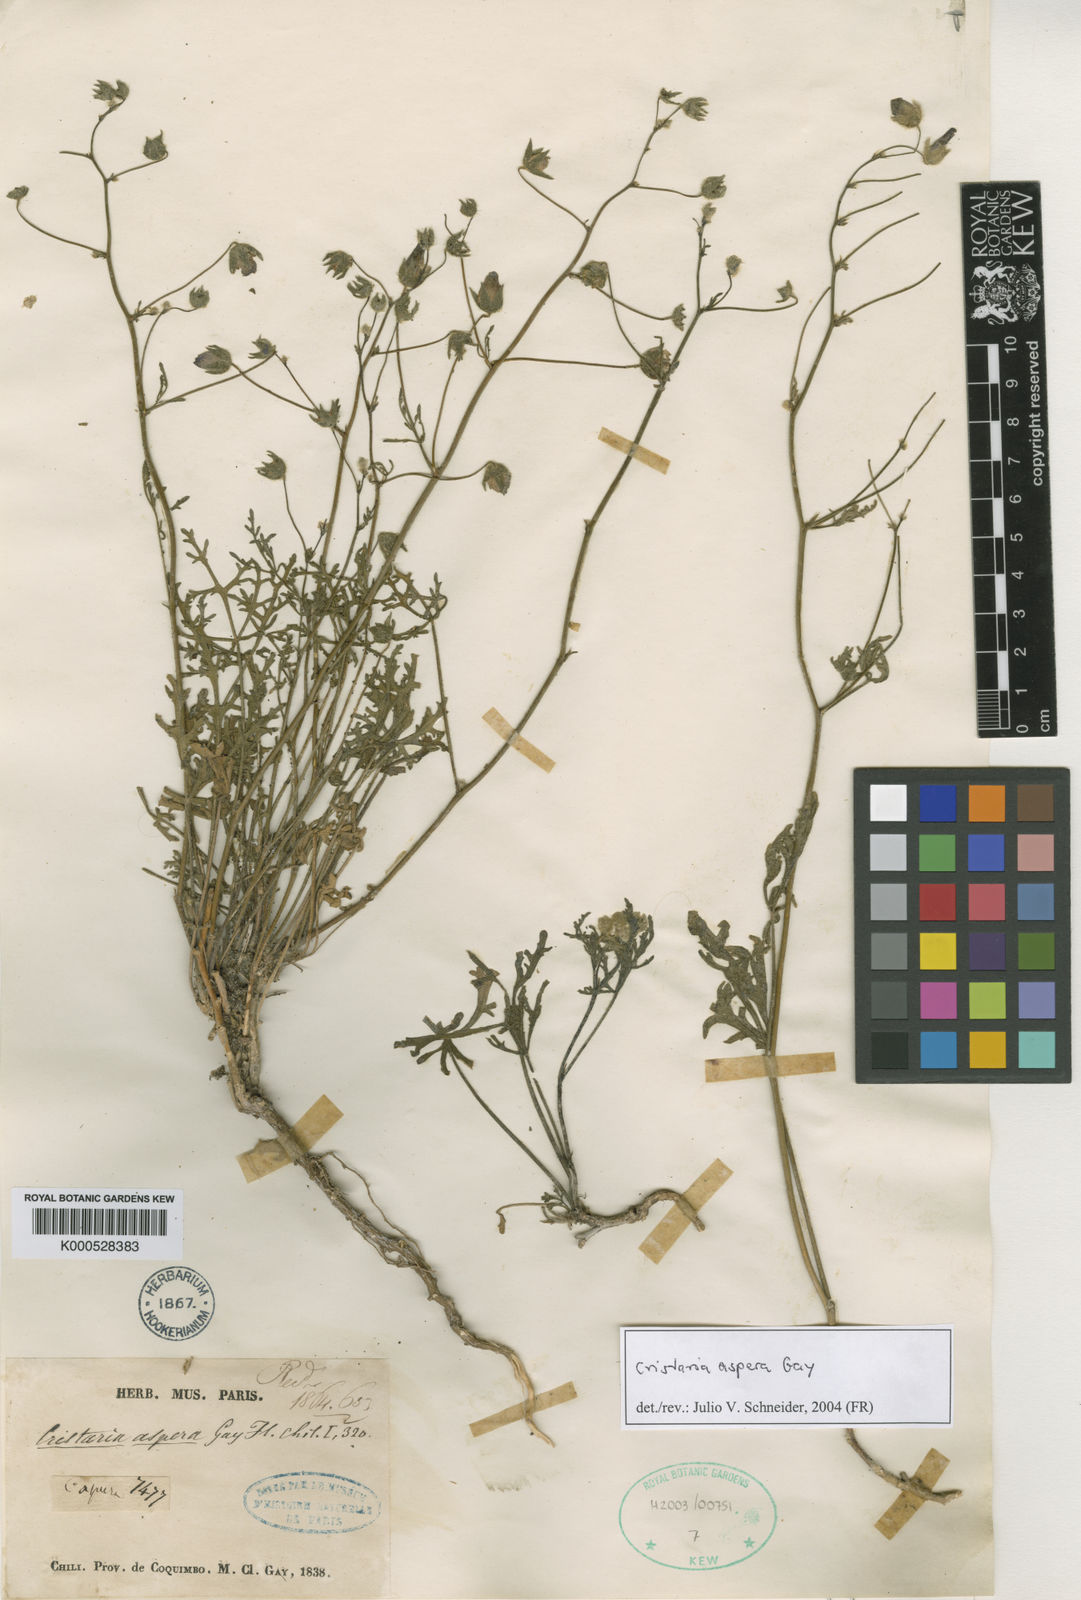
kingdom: Plantae
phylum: Tracheophyta
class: Magnoliopsida
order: Malvales
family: Malvaceae
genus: Cristaria
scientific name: Cristaria aspera
